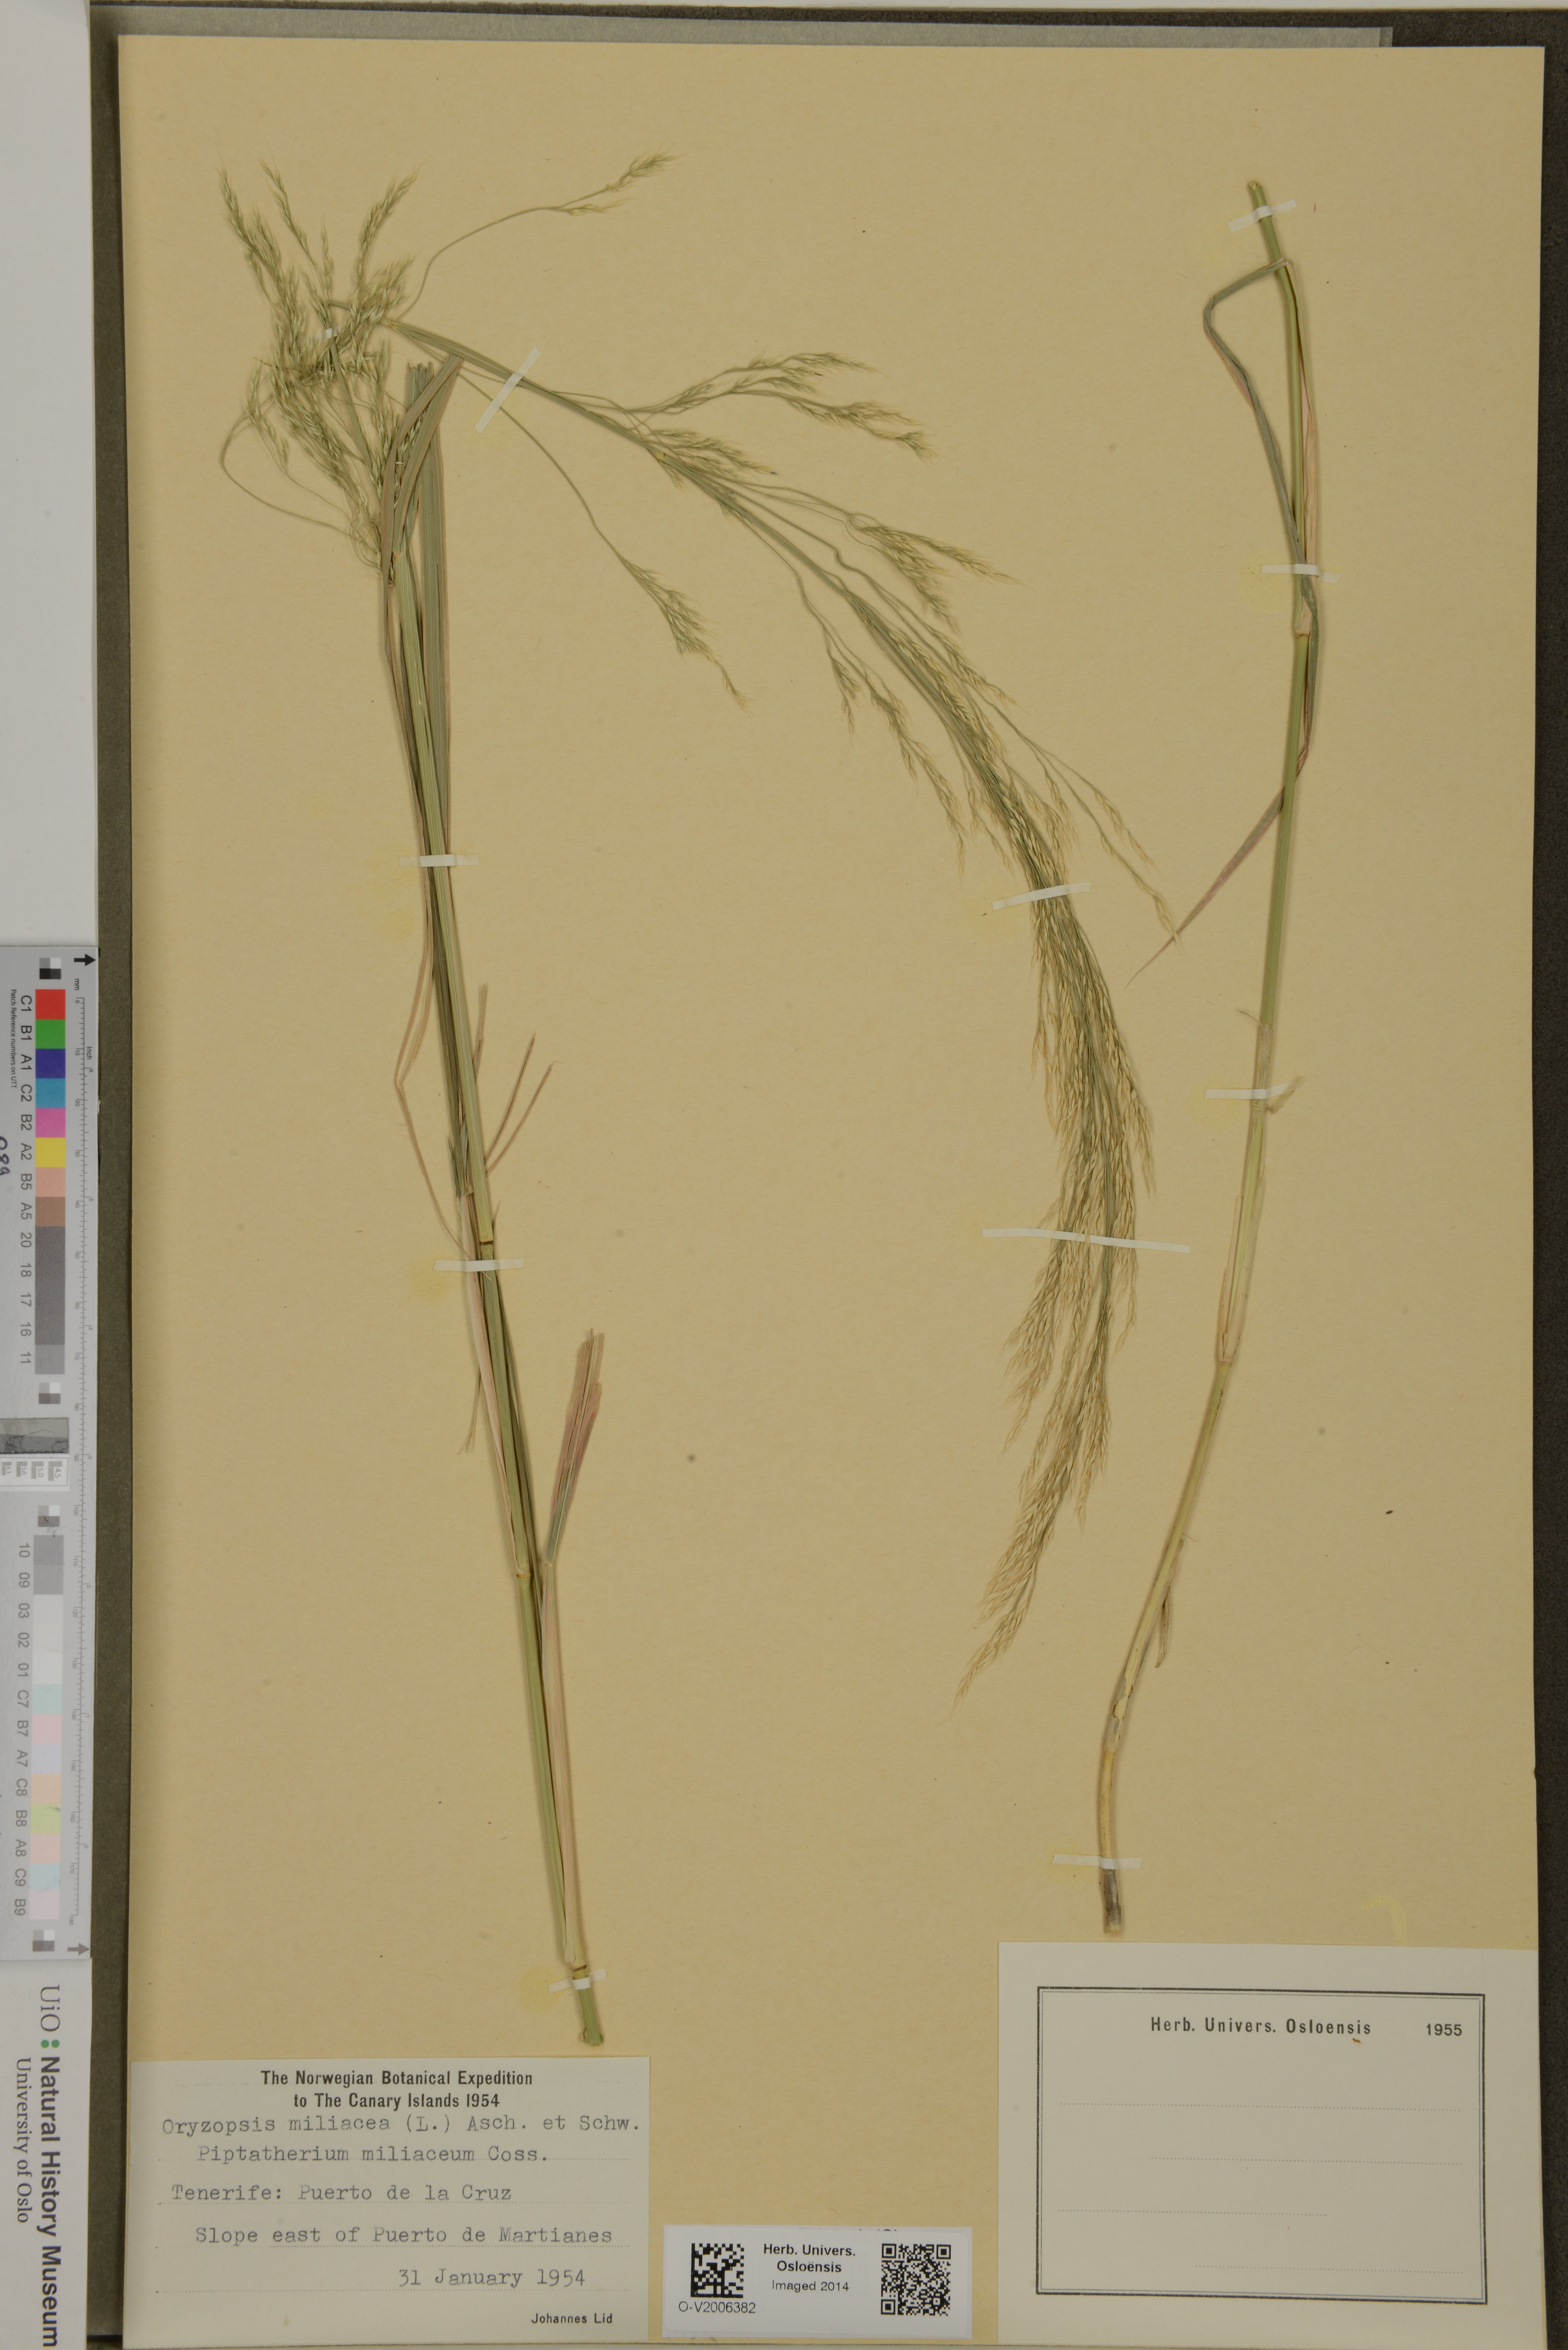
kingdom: Plantae
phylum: Tracheophyta
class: Liliopsida
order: Poales
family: Poaceae
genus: Oloptum
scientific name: Oloptum miliaceum
